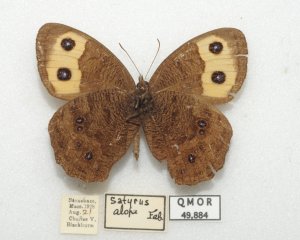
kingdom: Animalia
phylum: Arthropoda
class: Insecta
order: Lepidoptera
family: Nymphalidae
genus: Cercyonis
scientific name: Cercyonis pegala
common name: Common Wood-Nymph
